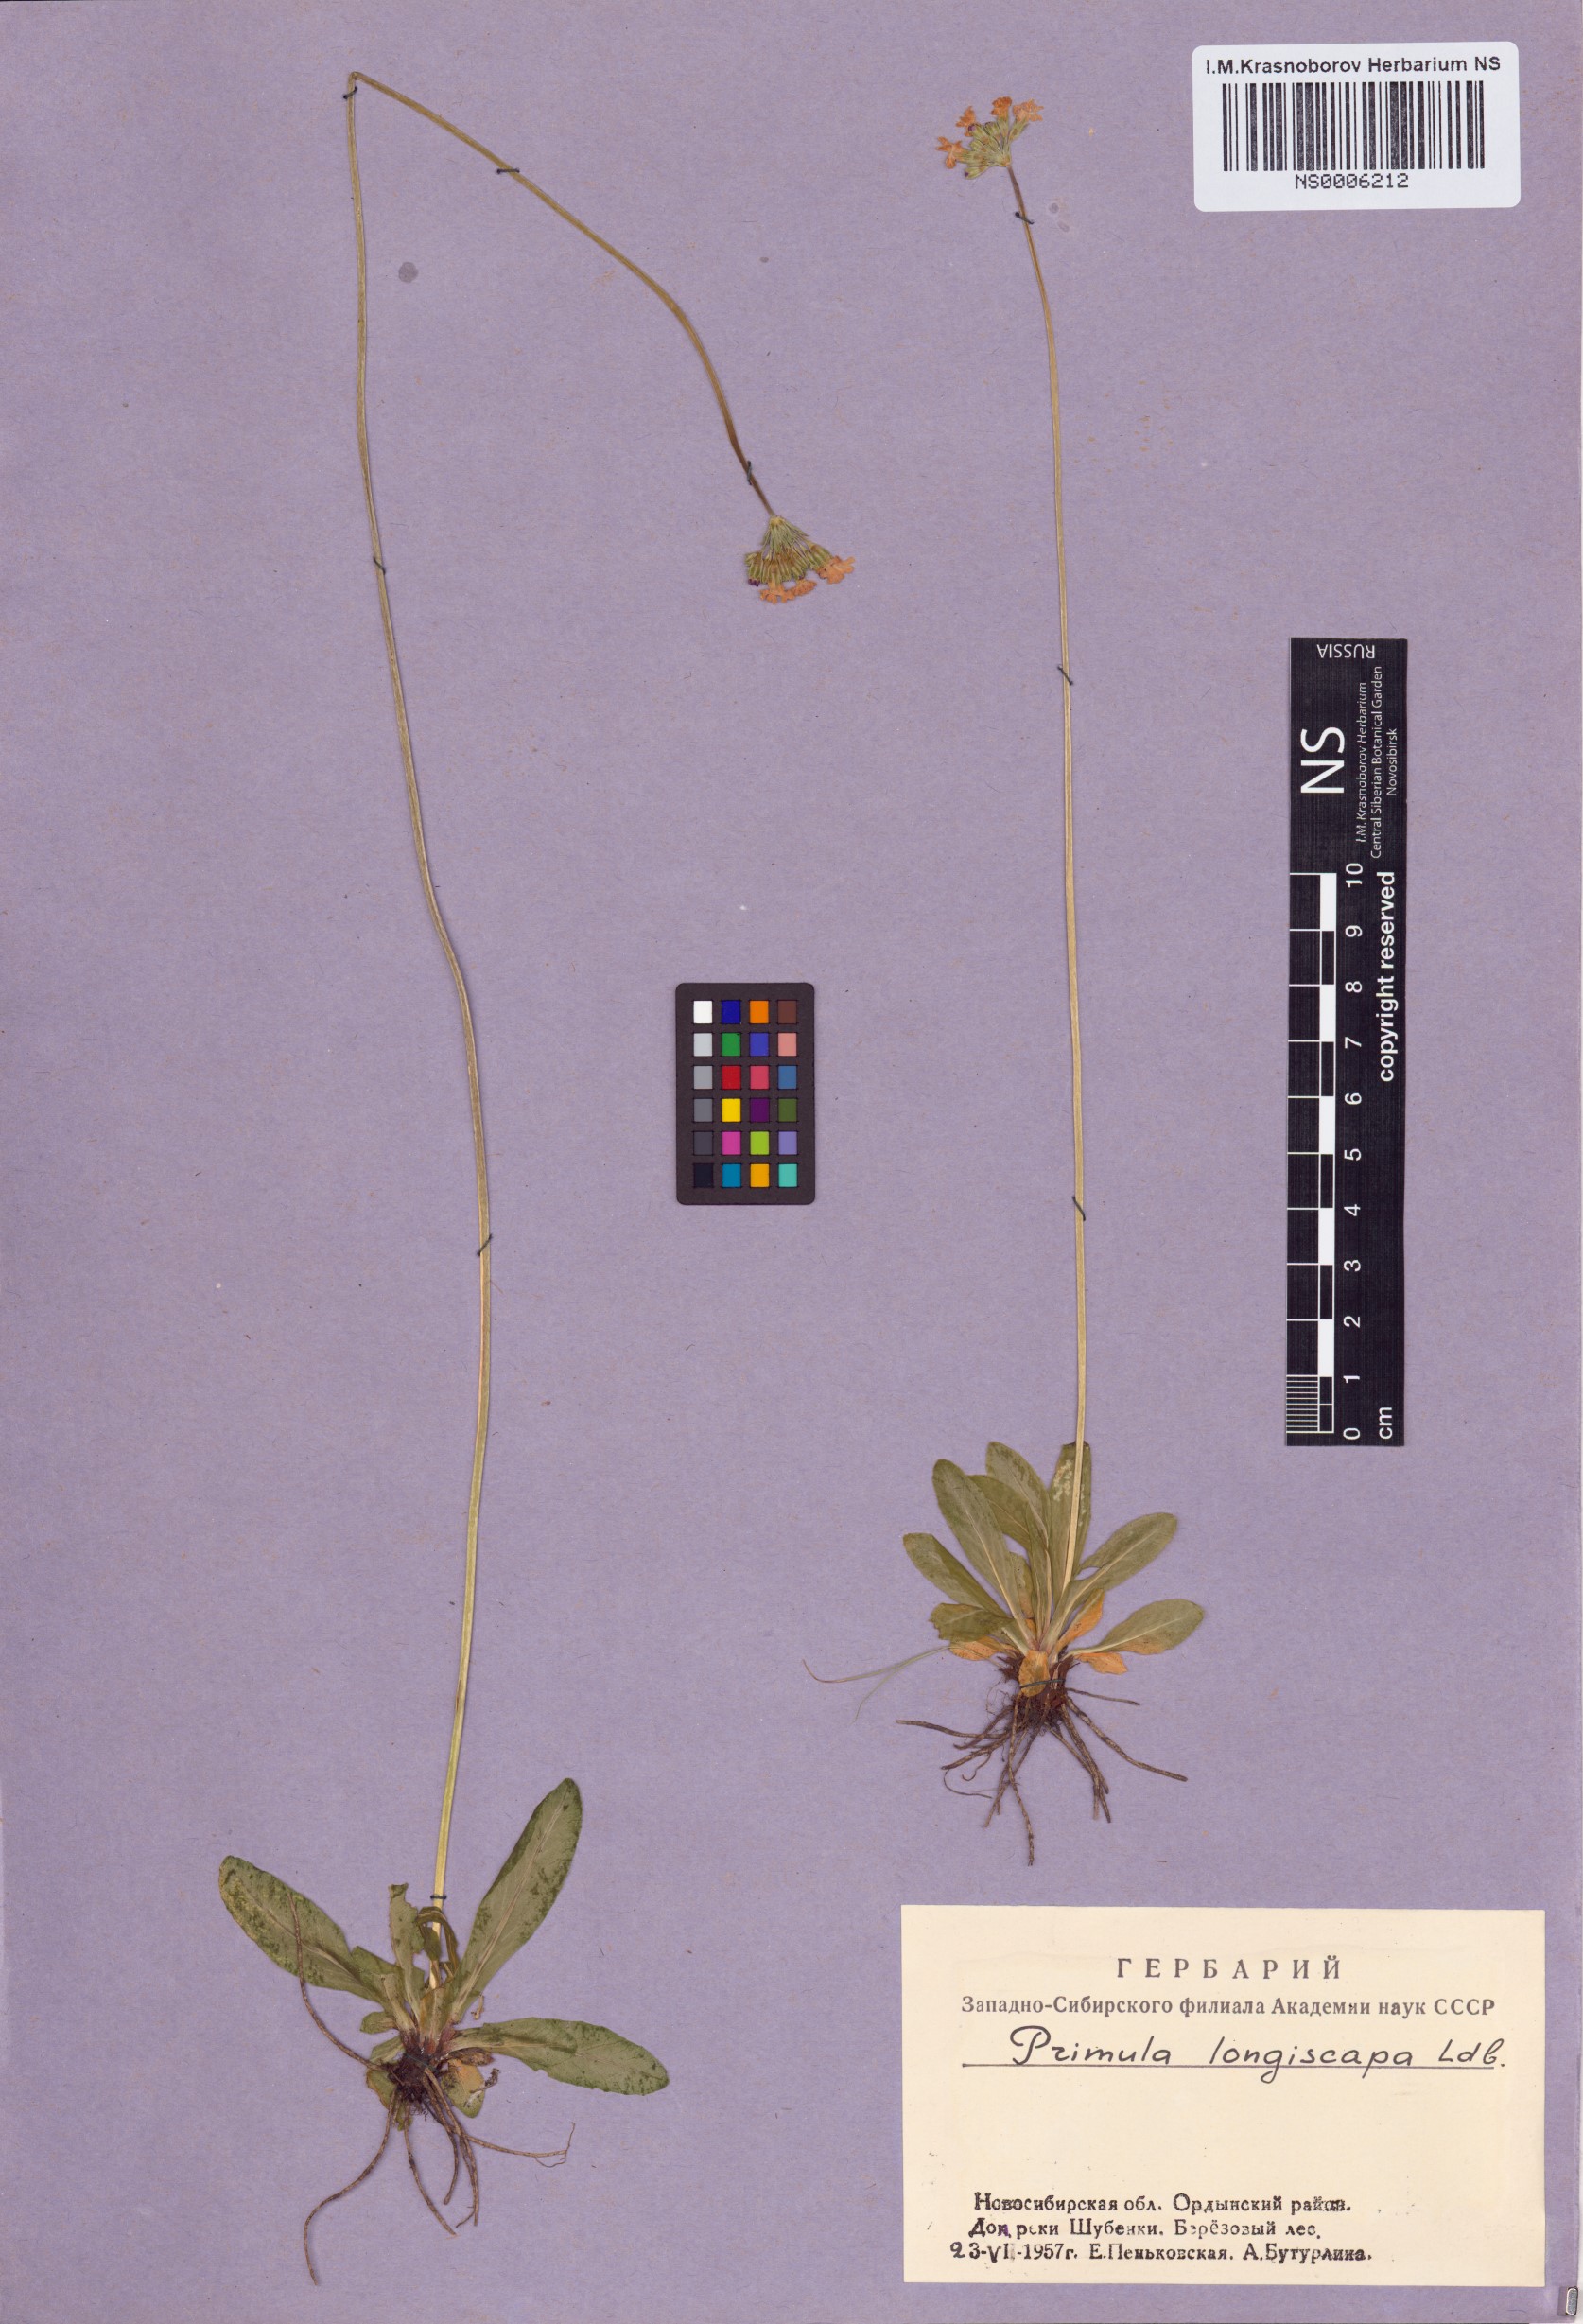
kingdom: Plantae
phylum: Tracheophyta
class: Magnoliopsida
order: Ericales
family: Primulaceae
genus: Primula
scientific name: Primula longiscapa
